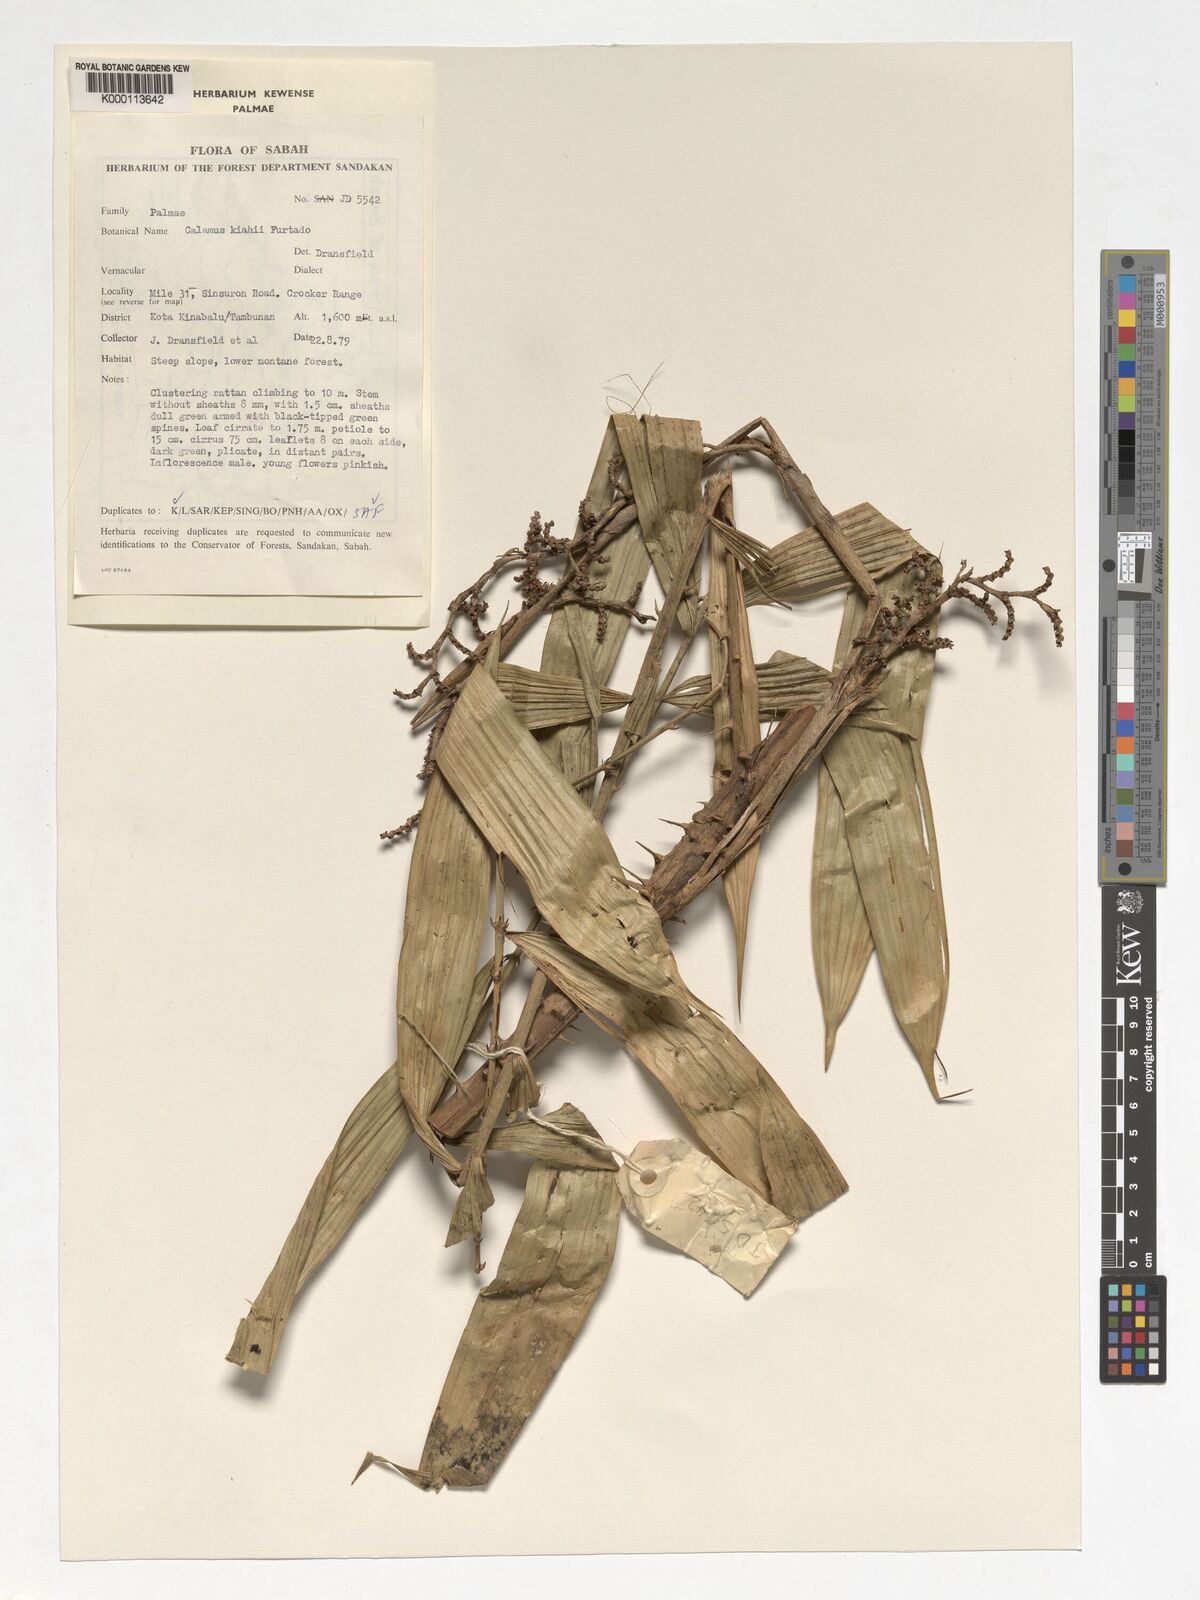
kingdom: Plantae
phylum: Tracheophyta
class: Liliopsida
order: Arecales
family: Arecaceae
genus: Calamus
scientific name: Calamus plicatus
